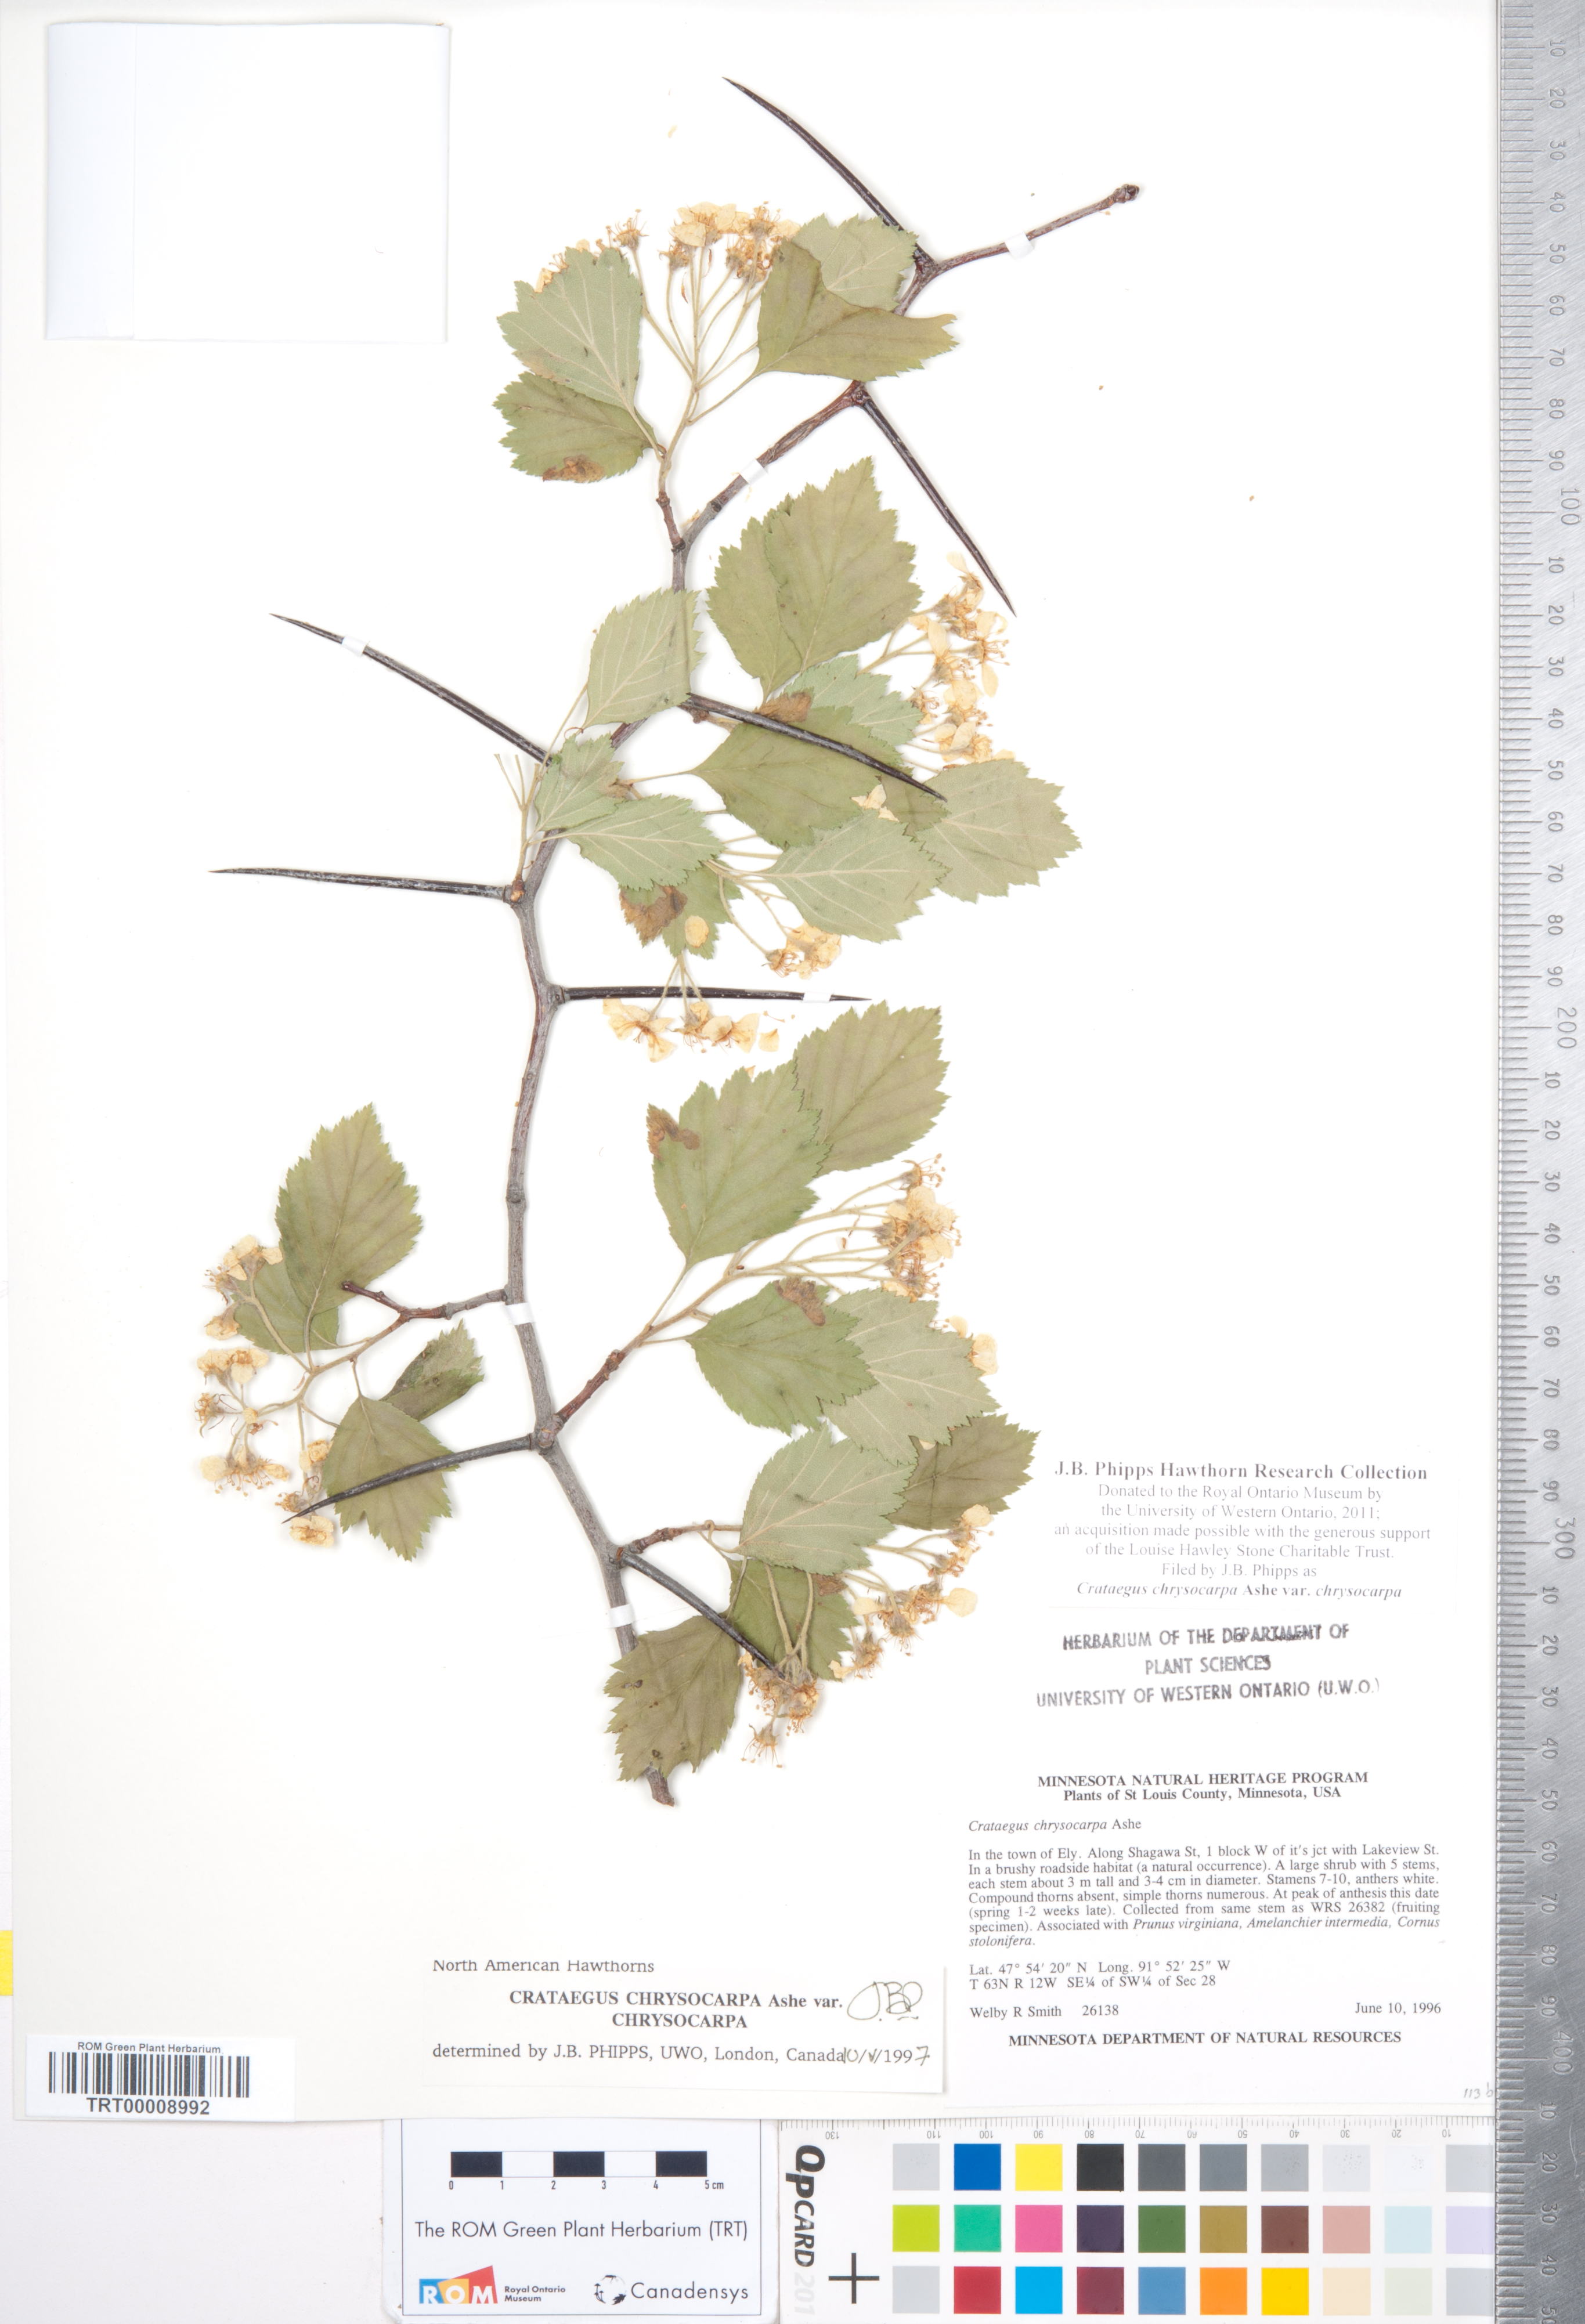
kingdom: Plantae
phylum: Tracheophyta
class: Magnoliopsida
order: Rosales
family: Rosaceae
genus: Crataegus
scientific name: Crataegus chrysocarpa
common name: Fire-berry hawthorn
